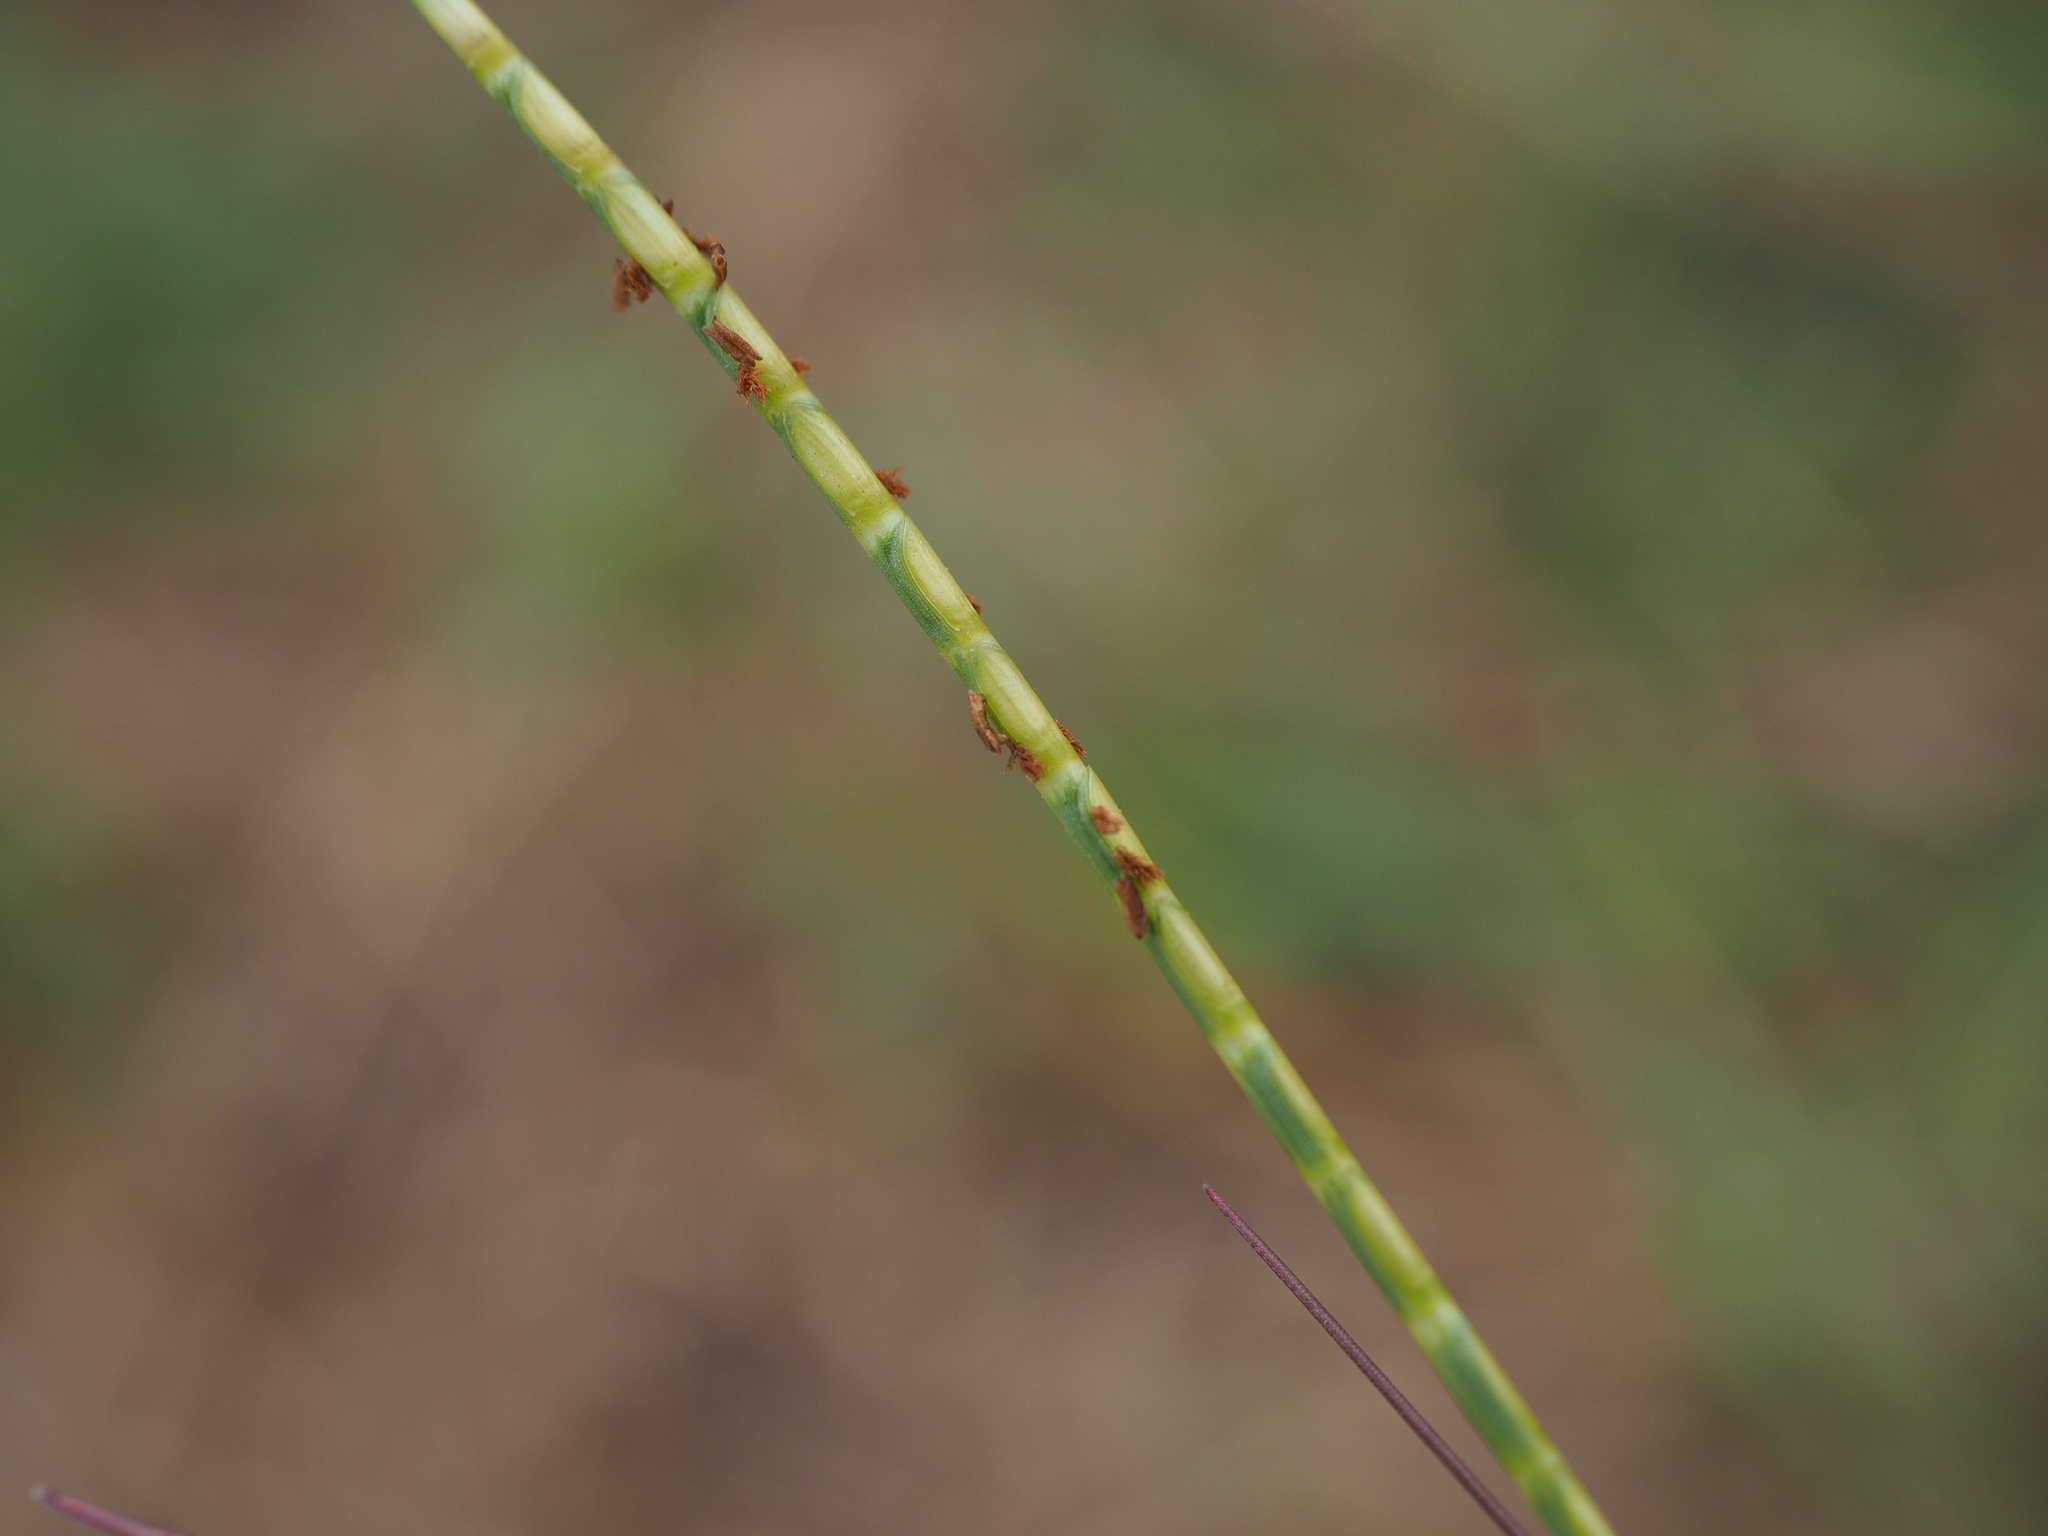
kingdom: Plantae
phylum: Tracheophyta
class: Liliopsida
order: Poales
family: Poaceae
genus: Mnesithea
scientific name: Mnesithea laevis
